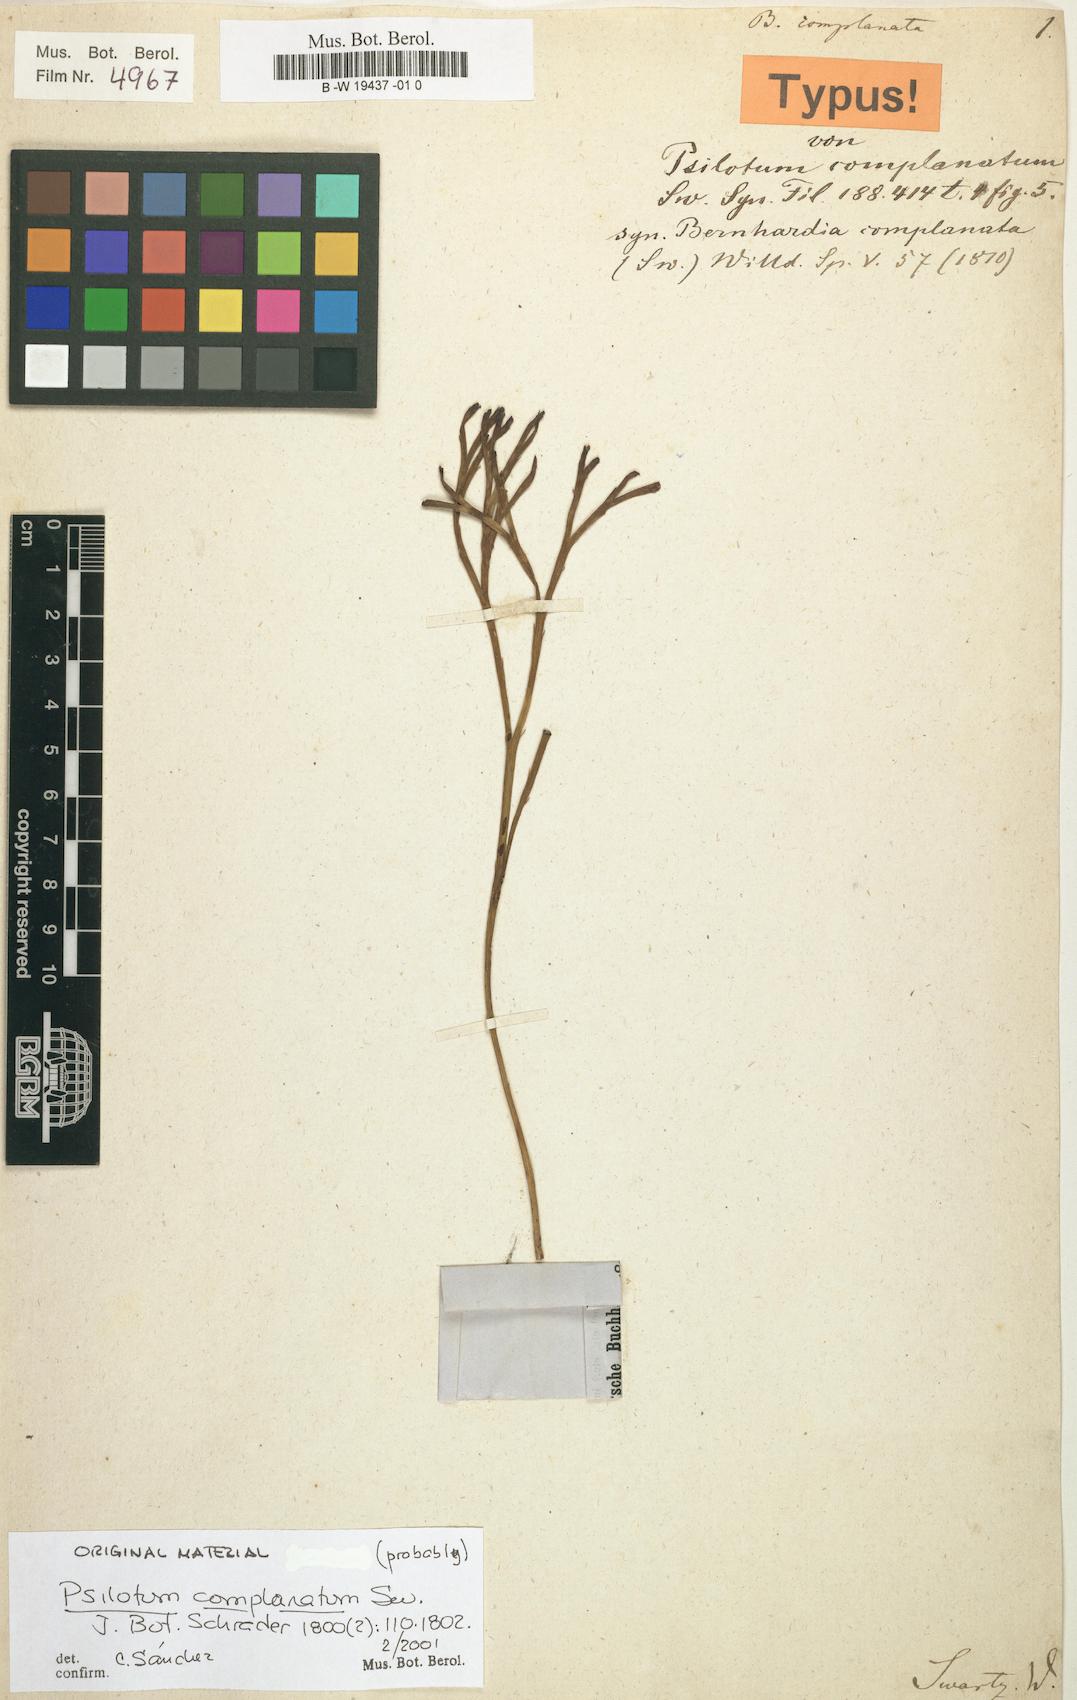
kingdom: Plantae
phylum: Tracheophyta
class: Polypodiopsida
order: Psilotales
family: Psilotaceae
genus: Psilotum
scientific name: Psilotum complanatum
